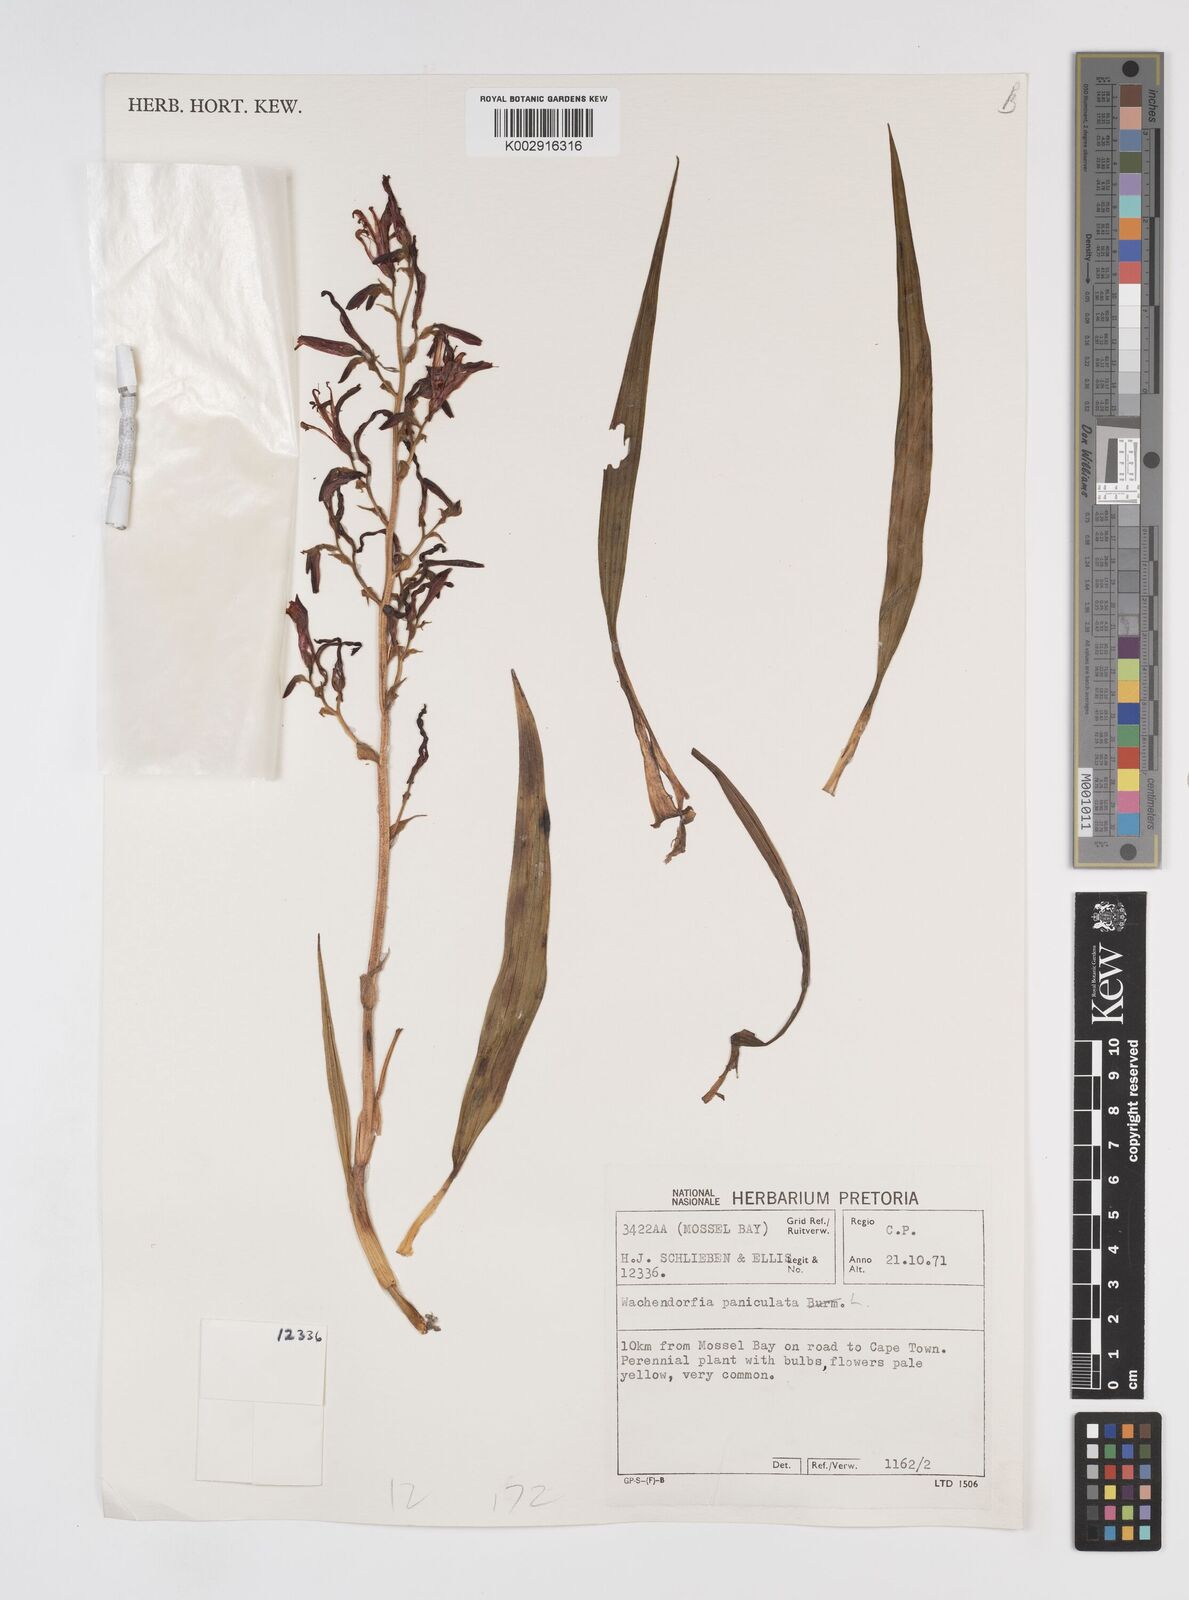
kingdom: Plantae
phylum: Tracheophyta
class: Liliopsida
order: Commelinales
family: Haemodoraceae
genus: Wachendorfia
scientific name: Wachendorfia paniculata
